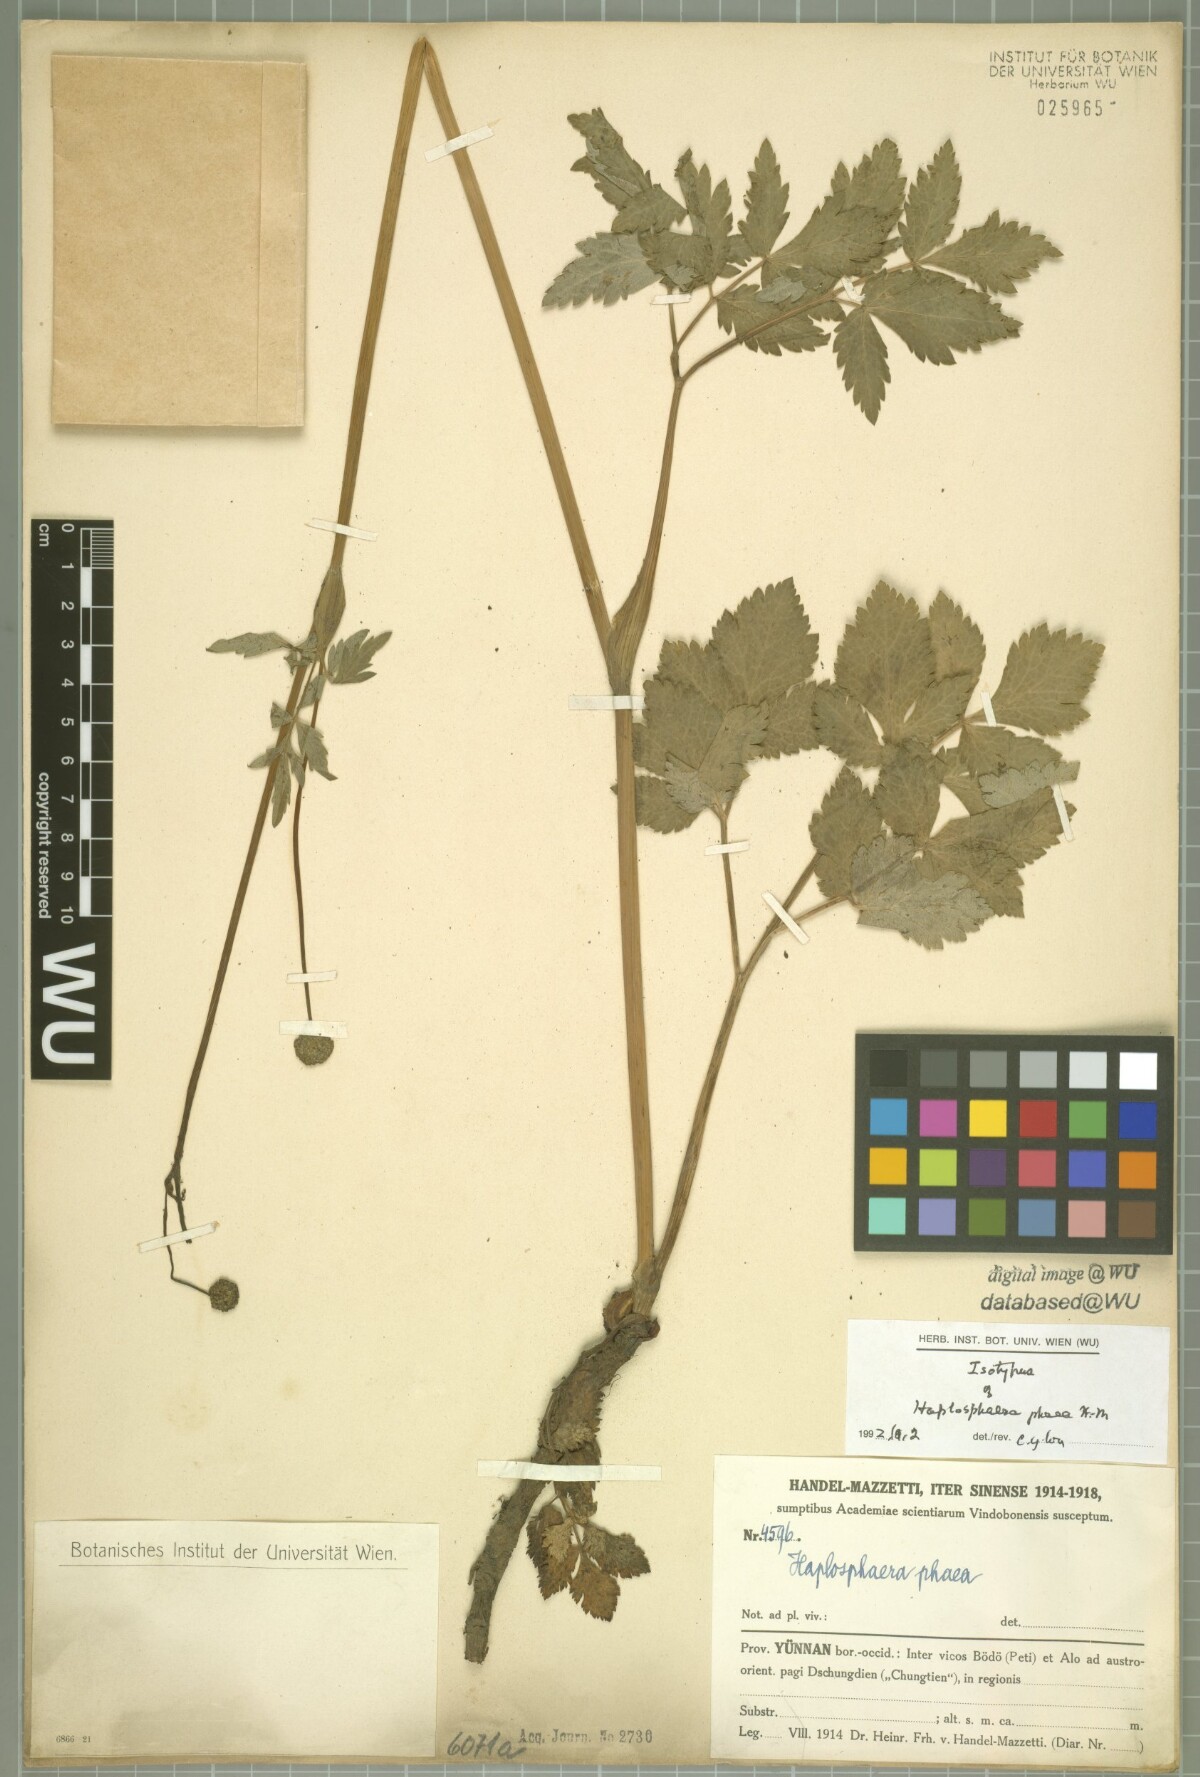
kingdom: Plantae
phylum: Tracheophyta
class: Magnoliopsida
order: Apiales
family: Apiaceae
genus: Hansenia
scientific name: Hansenia phaea
